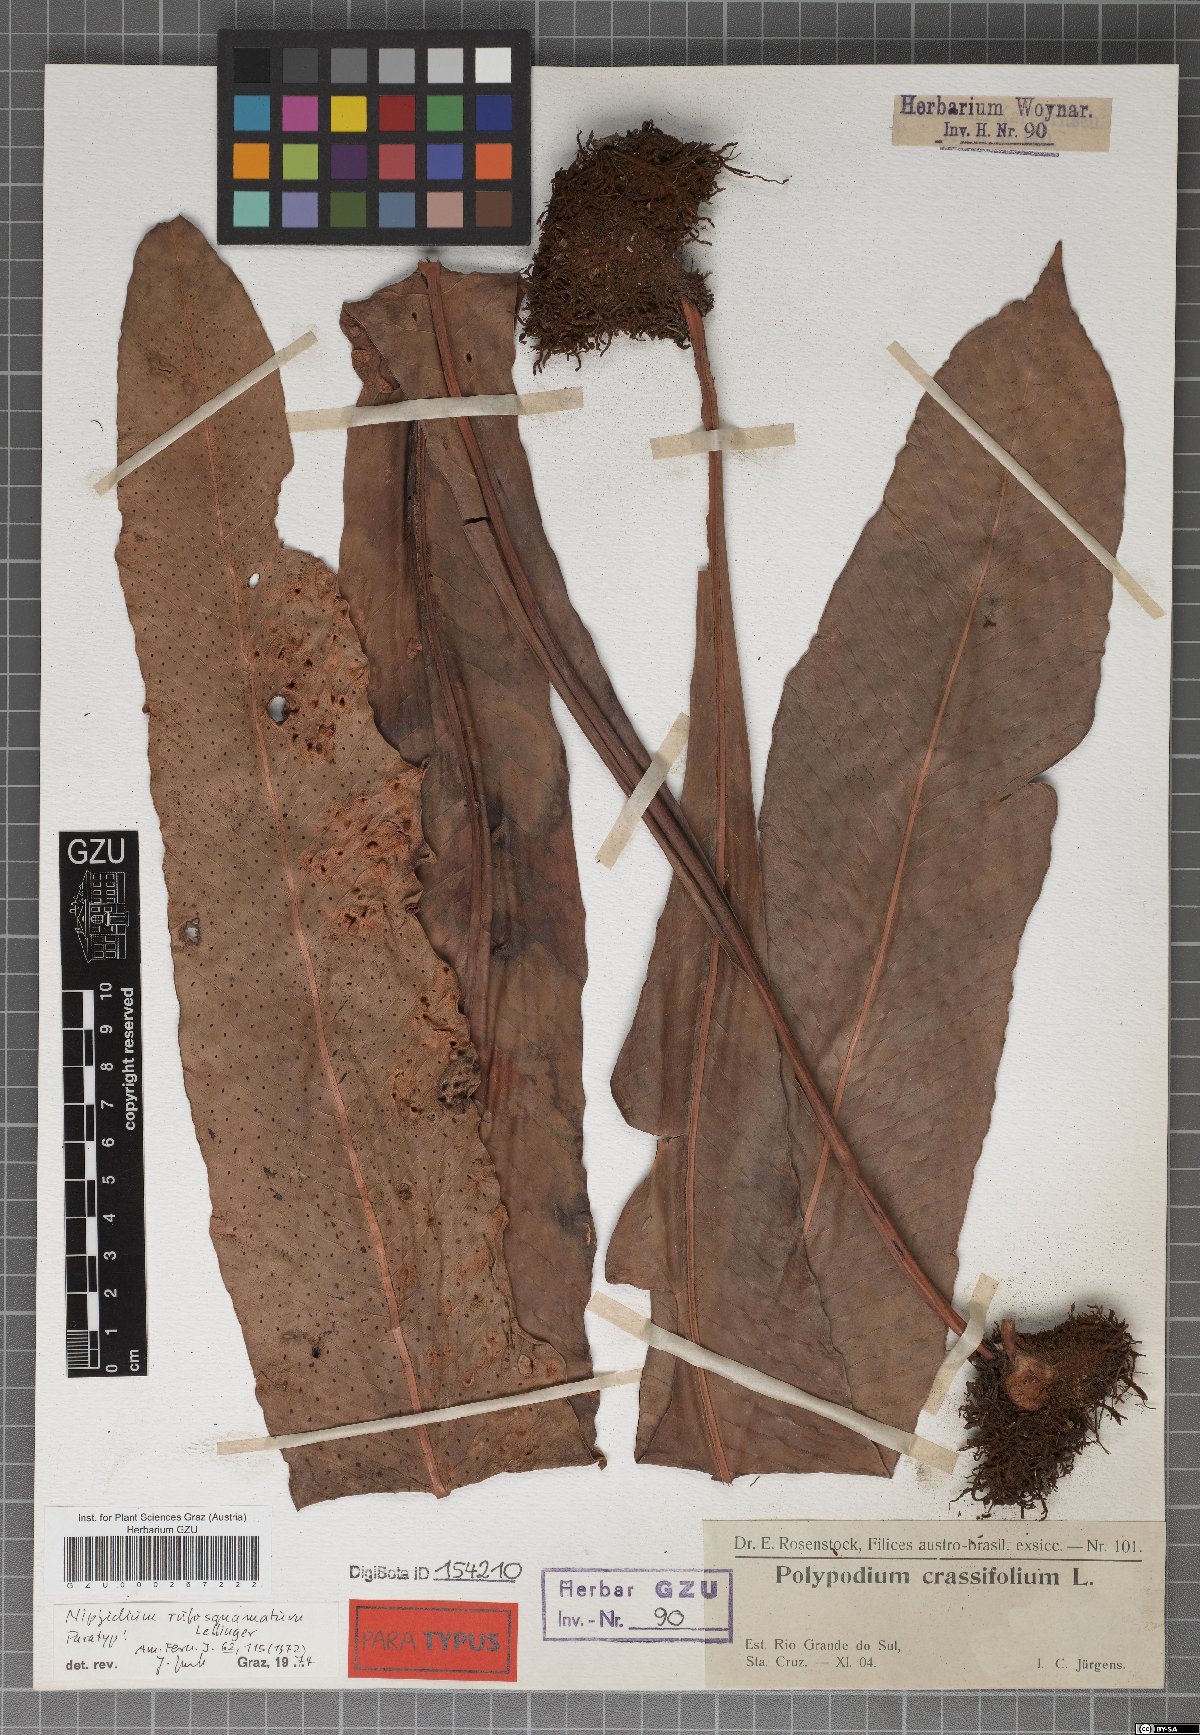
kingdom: Plantae
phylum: Tracheophyta
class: Polypodiopsida
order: Polypodiales
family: Polypodiaceae
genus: Niphidium
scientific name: Niphidium rufosquamatum
